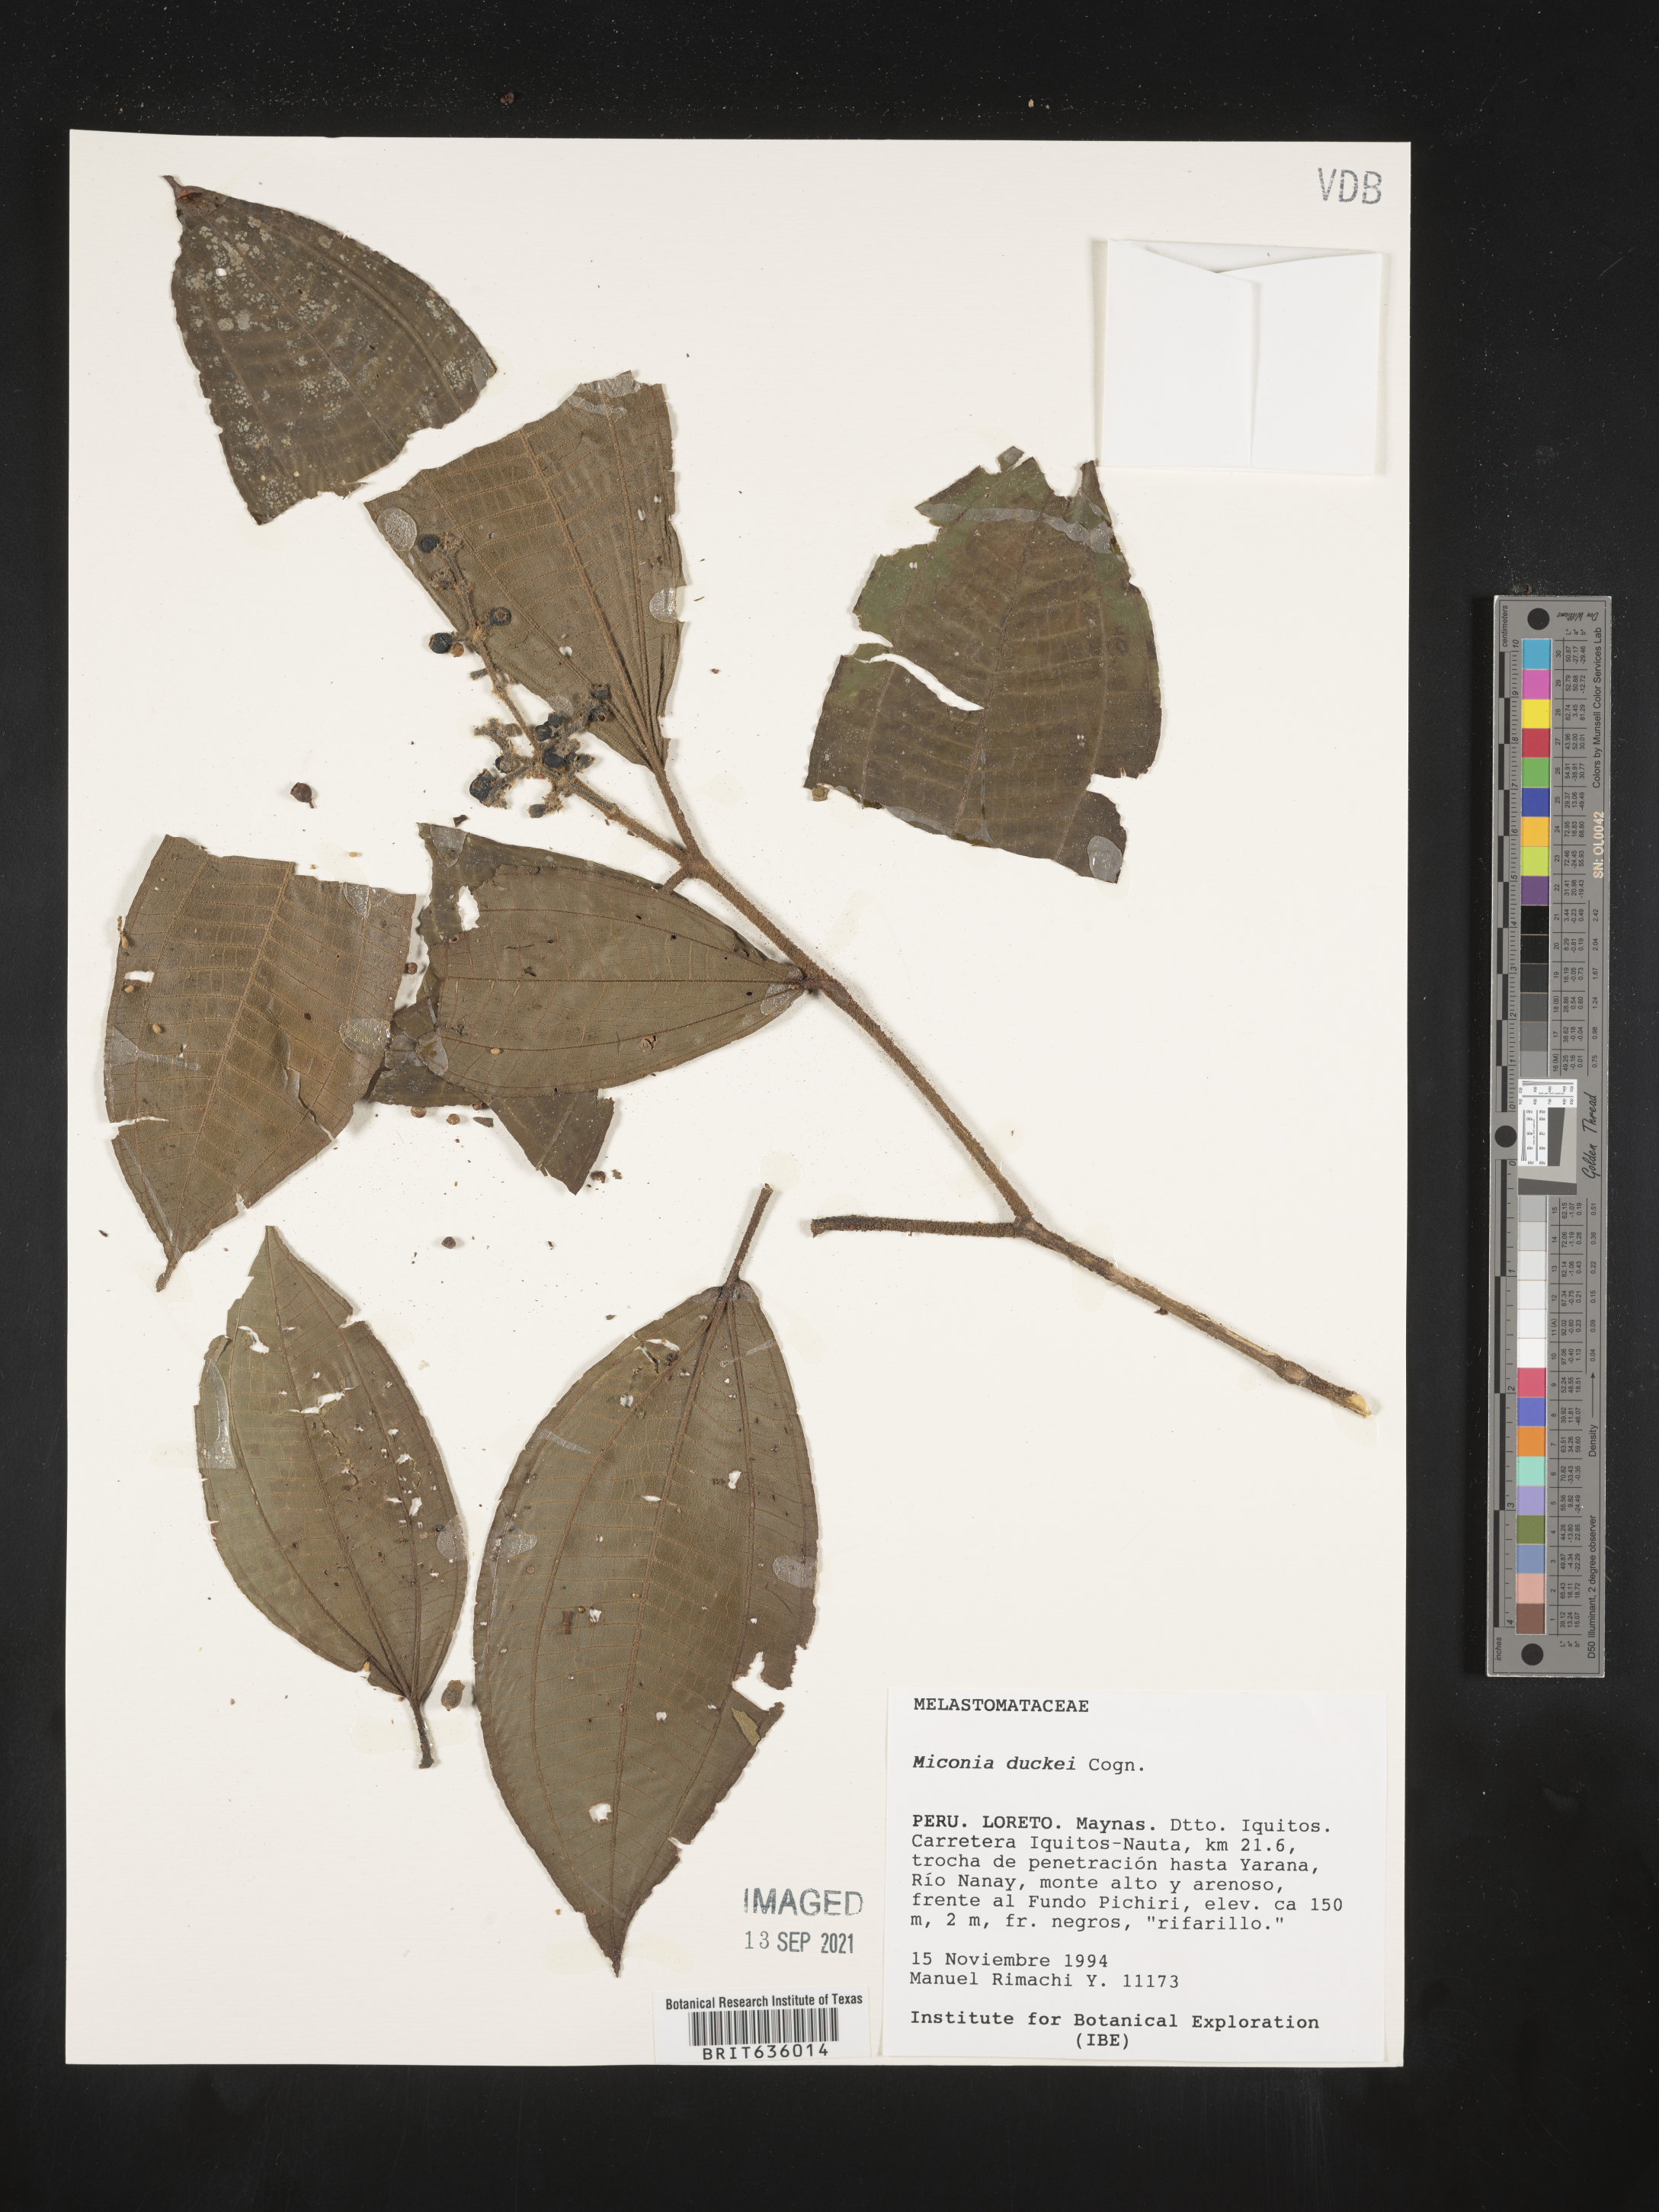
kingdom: Plantae
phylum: Tracheophyta
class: Magnoliopsida
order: Myrtales
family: Melastomataceae
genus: Miconia
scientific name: Miconia
